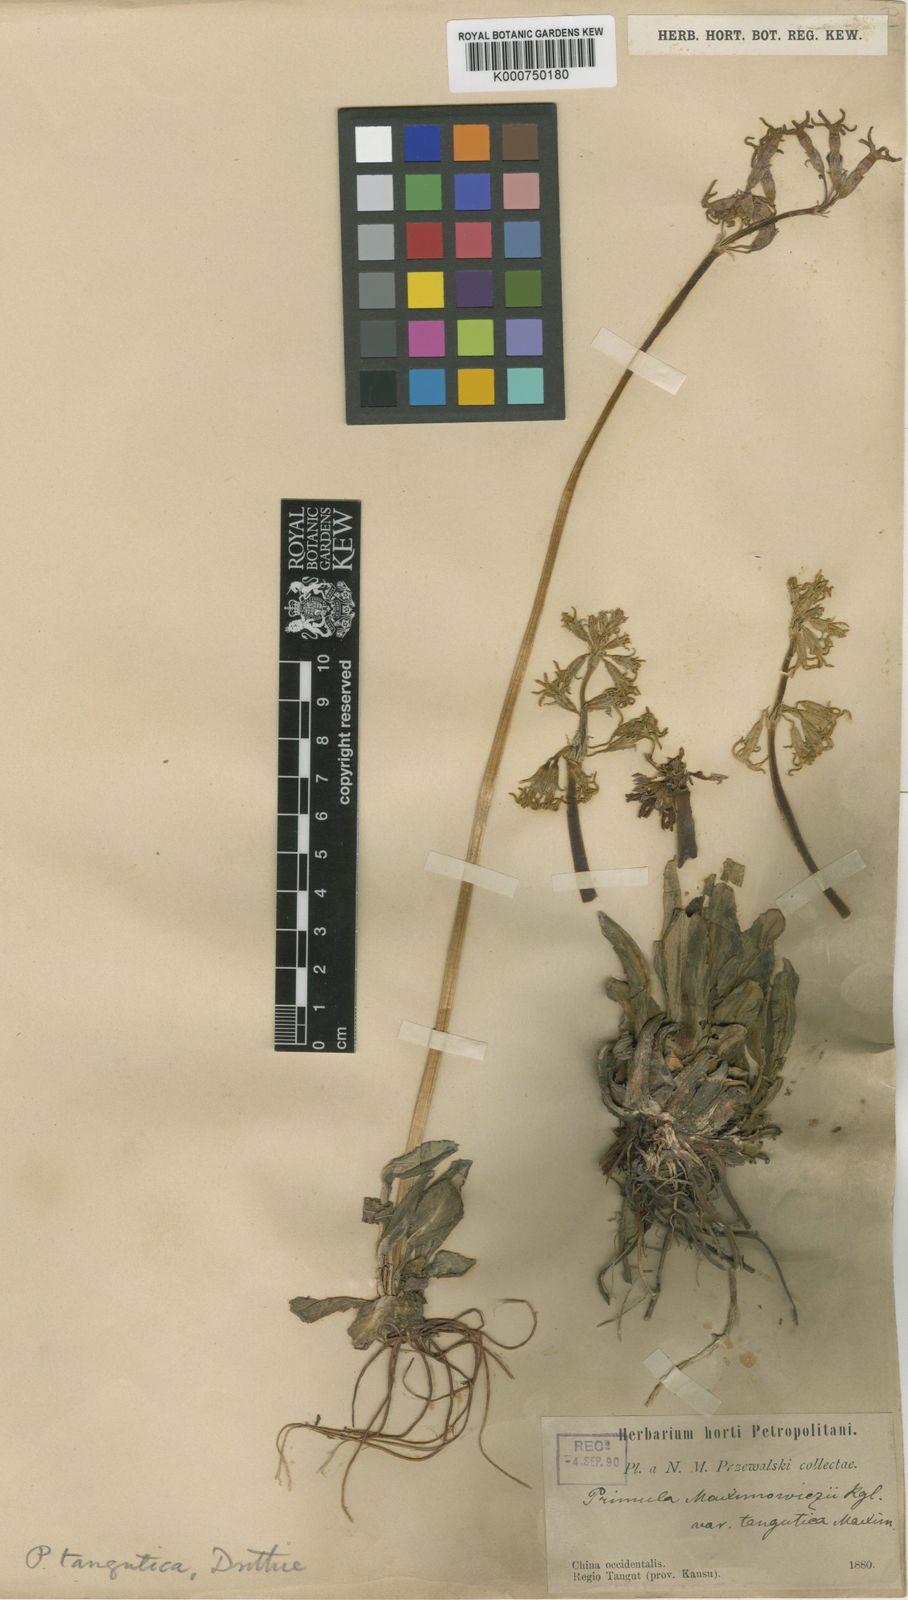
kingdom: Plantae
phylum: Tracheophyta
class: Magnoliopsida
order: Ericales
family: Primulaceae
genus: Primula
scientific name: Primula tangutica
